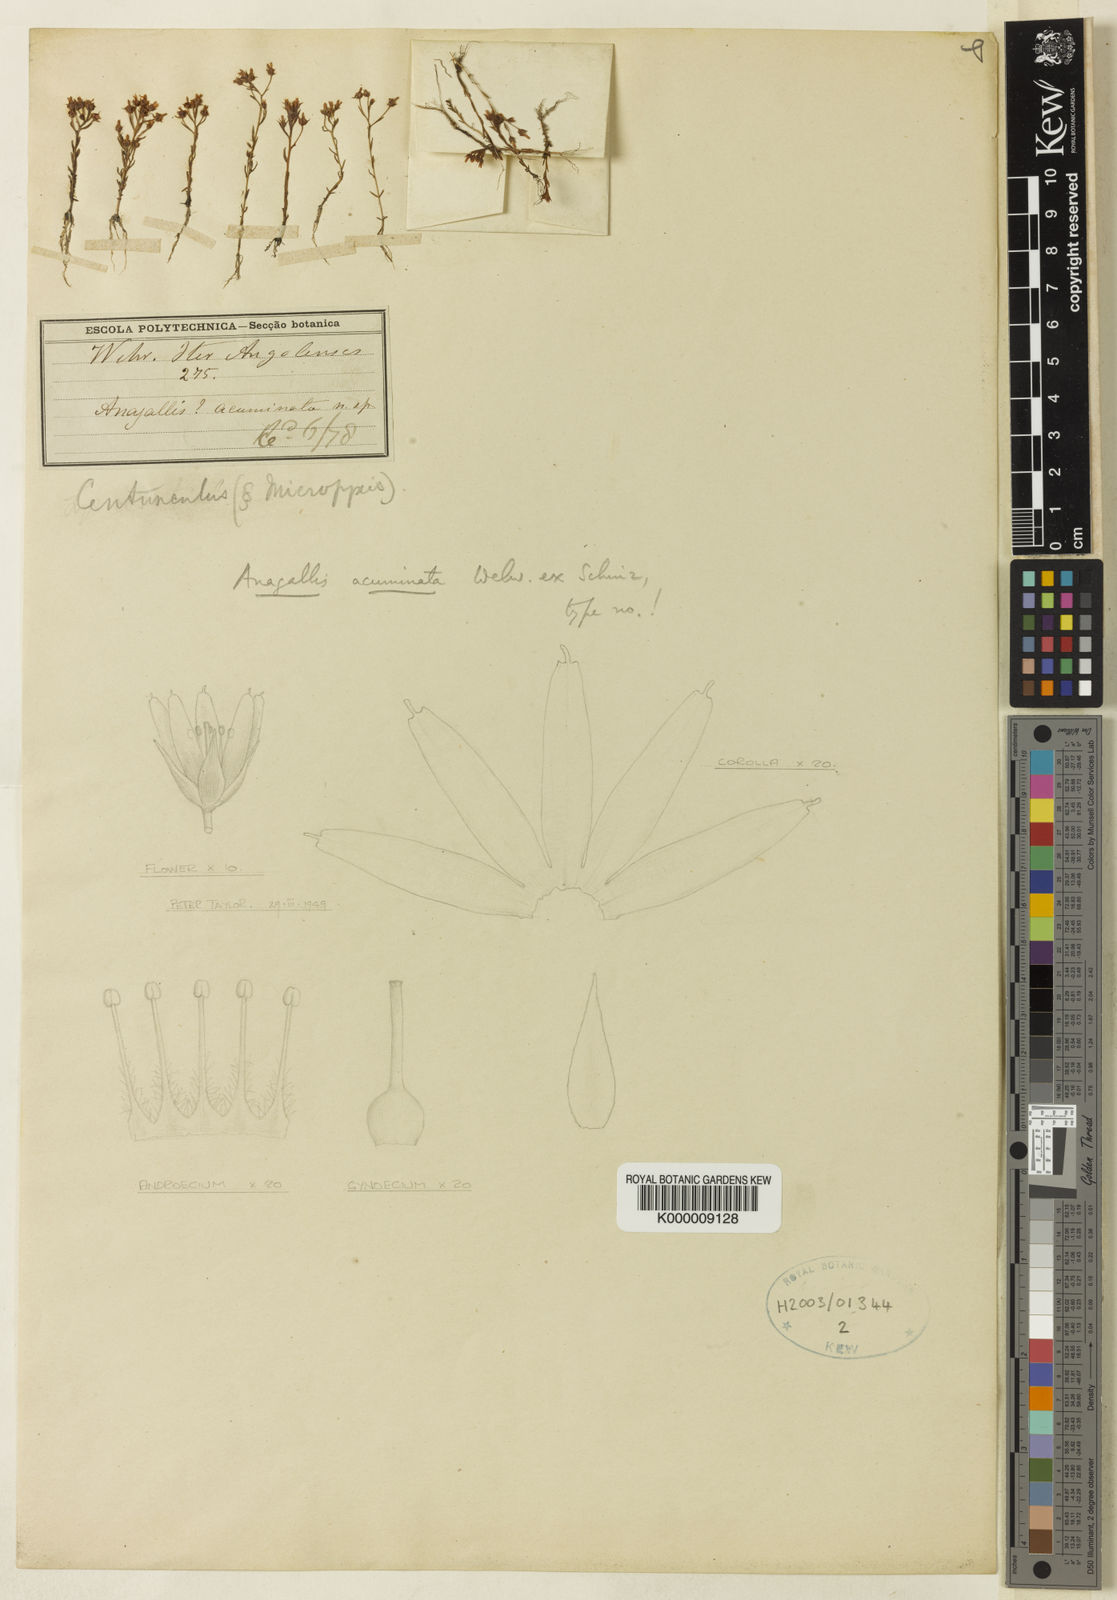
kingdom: Plantae
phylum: Tracheophyta
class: Magnoliopsida
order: Ericales
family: Primulaceae
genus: Lysimachia
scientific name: Lysimachia acuminata
